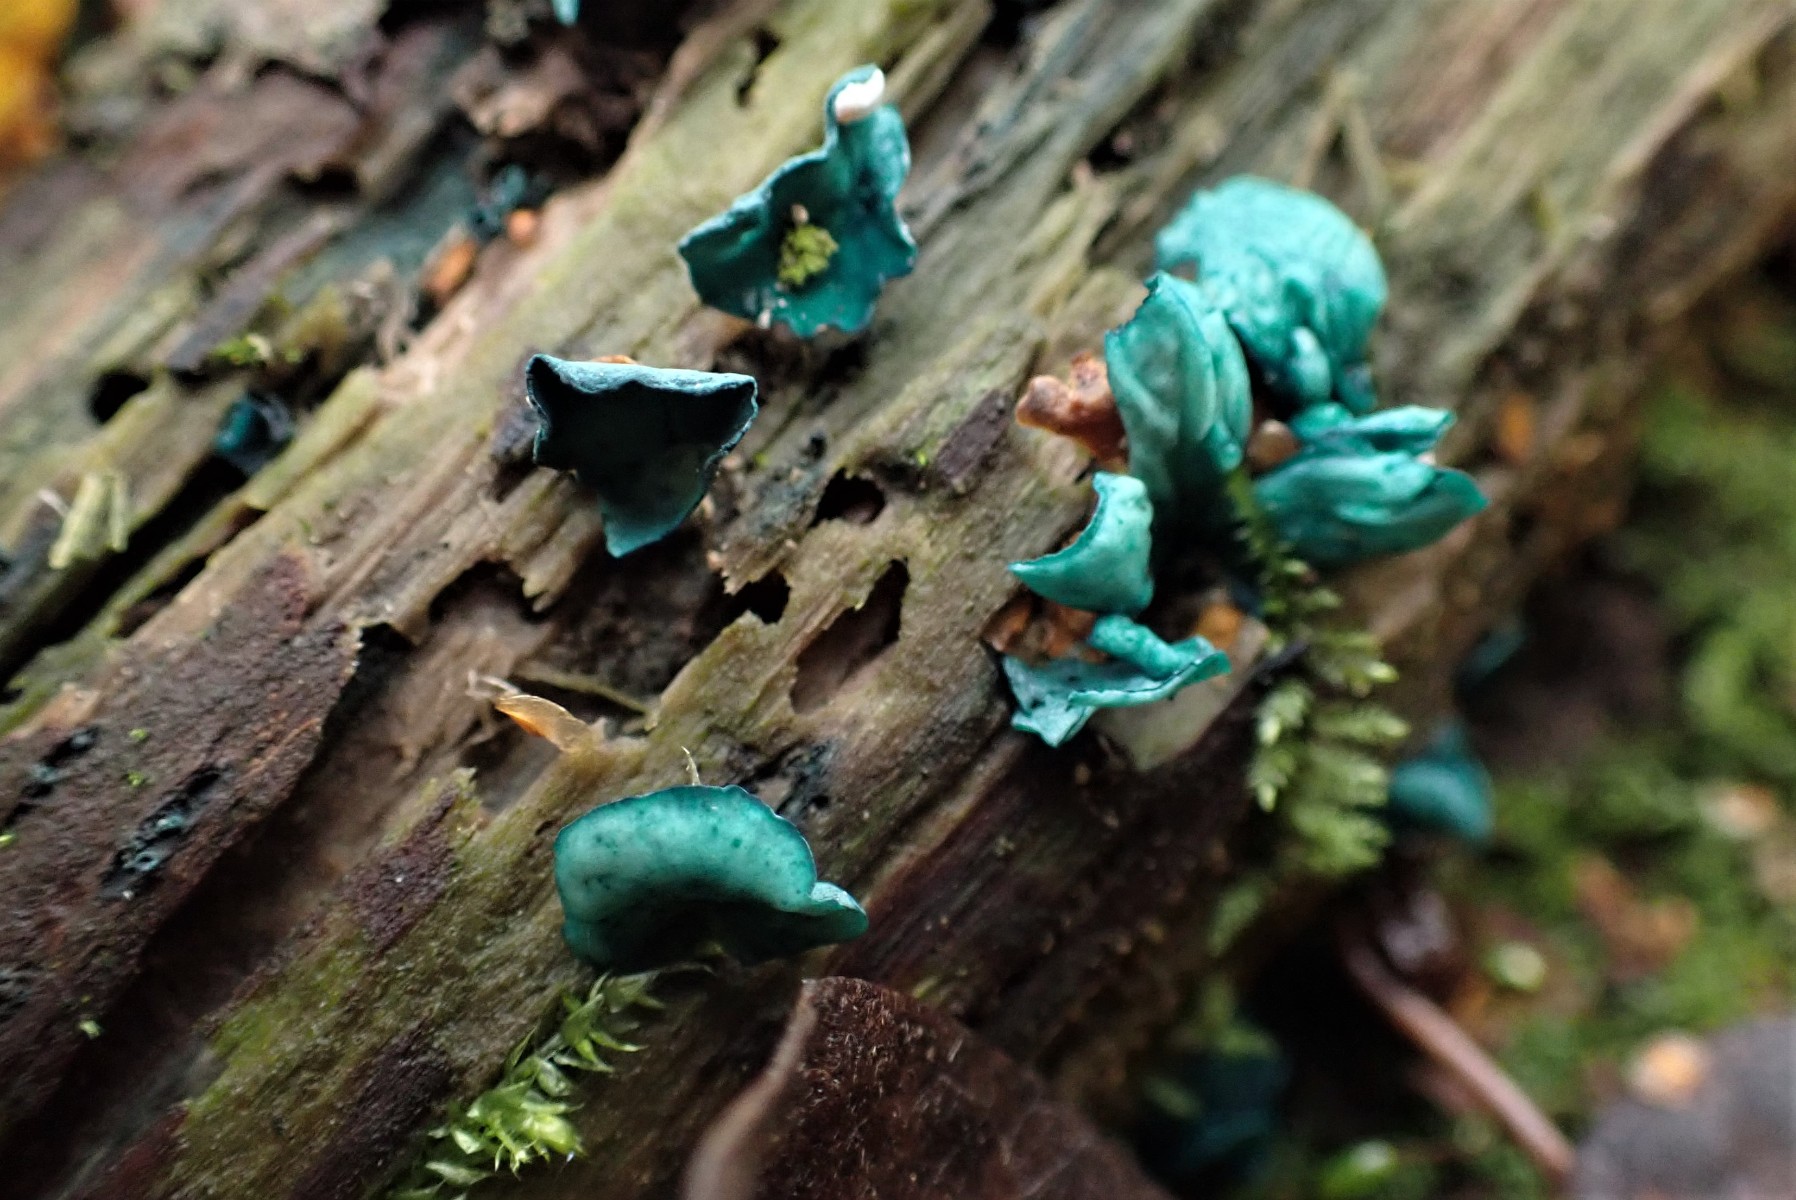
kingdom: Fungi
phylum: Ascomycota
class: Leotiomycetes
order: Helotiales
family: Chlorociboriaceae
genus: Chlorociboria
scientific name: Chlorociboria aeruginascens
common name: almindelig grønskive
